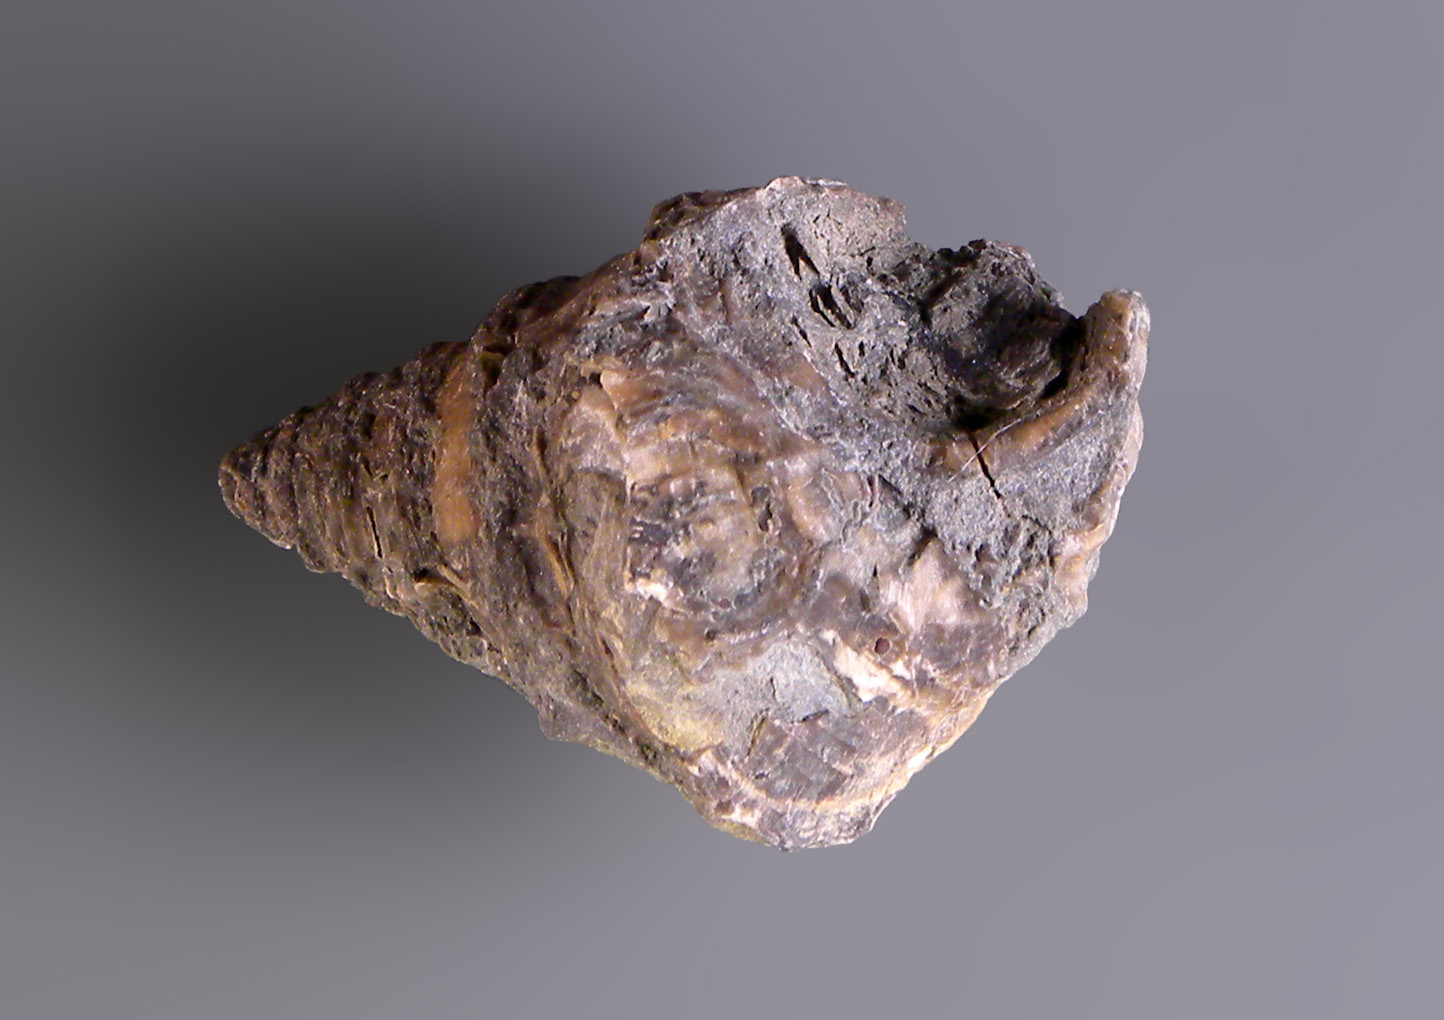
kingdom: Animalia
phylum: Mollusca
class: Gastropoda
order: Trochida
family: Nododelphinulidae
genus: Costatrochus
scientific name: Costatrochus subduplicatus
